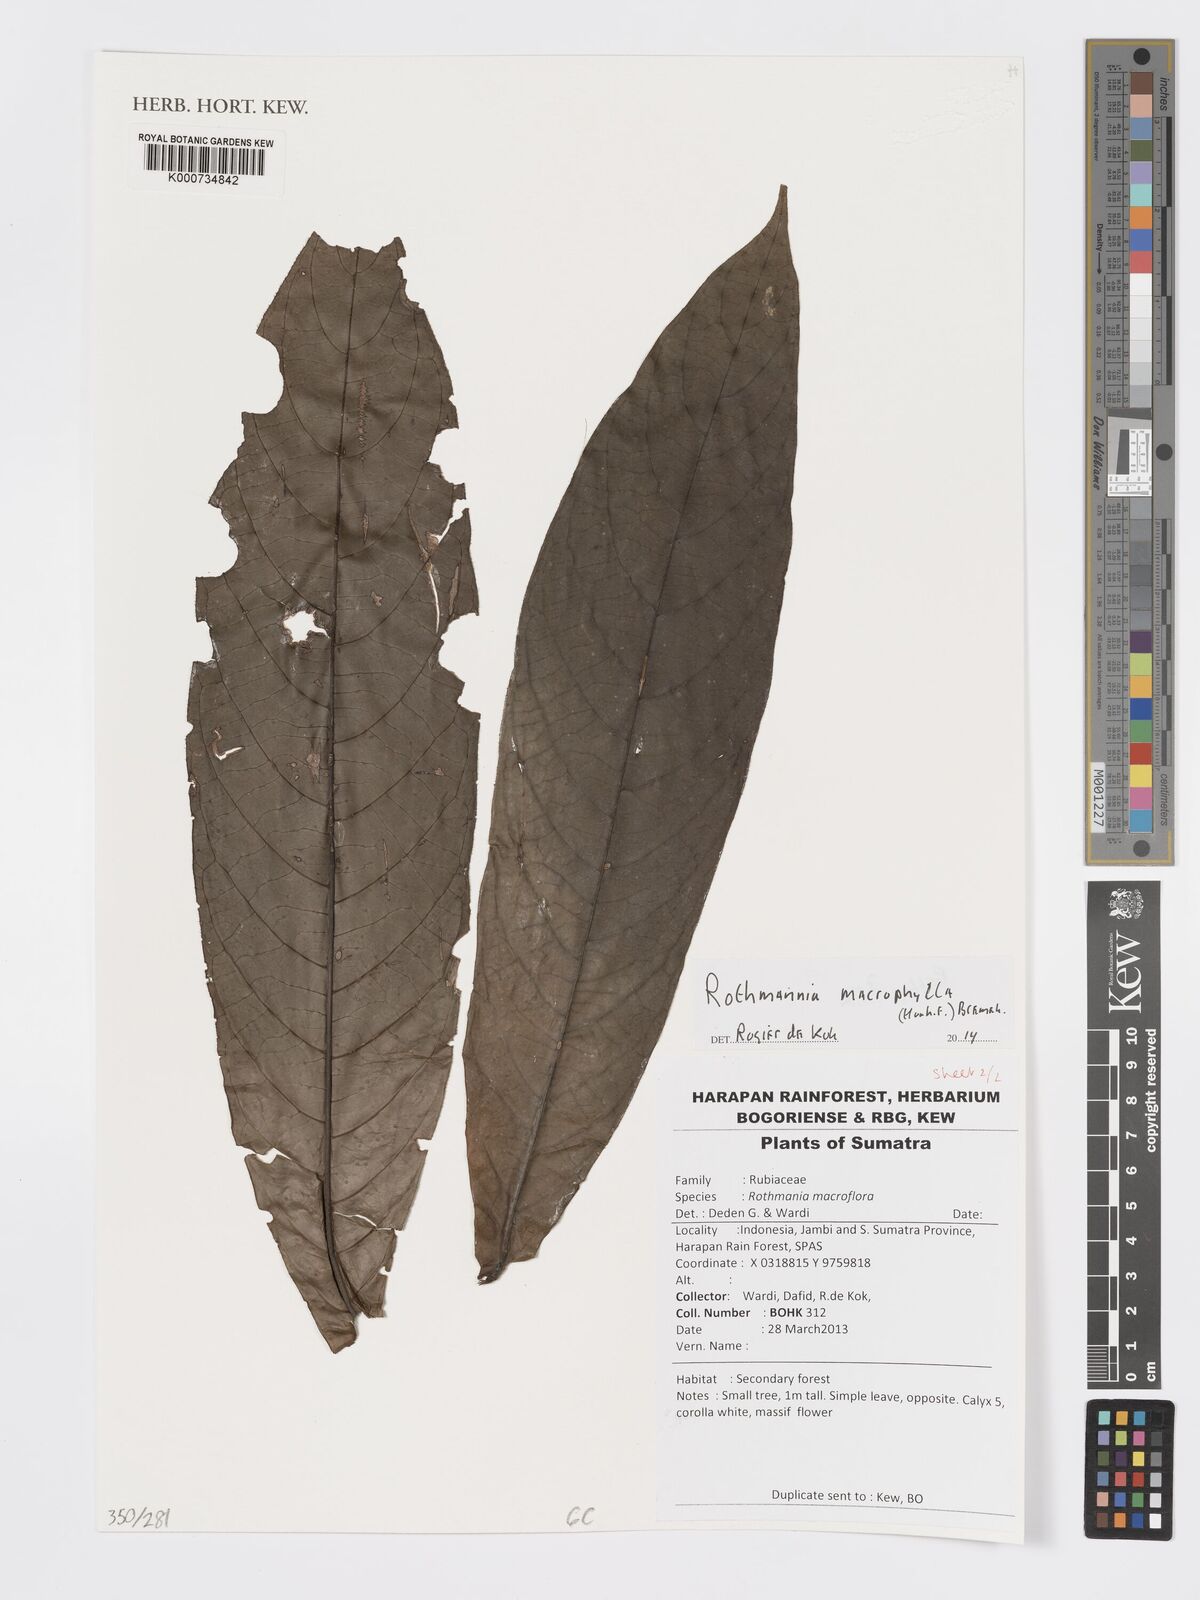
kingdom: Plantae
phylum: Tracheophyta
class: Magnoliopsida
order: Gentianales
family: Rubiaceae
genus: Singaporandia
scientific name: Singaporandia macrophylla
